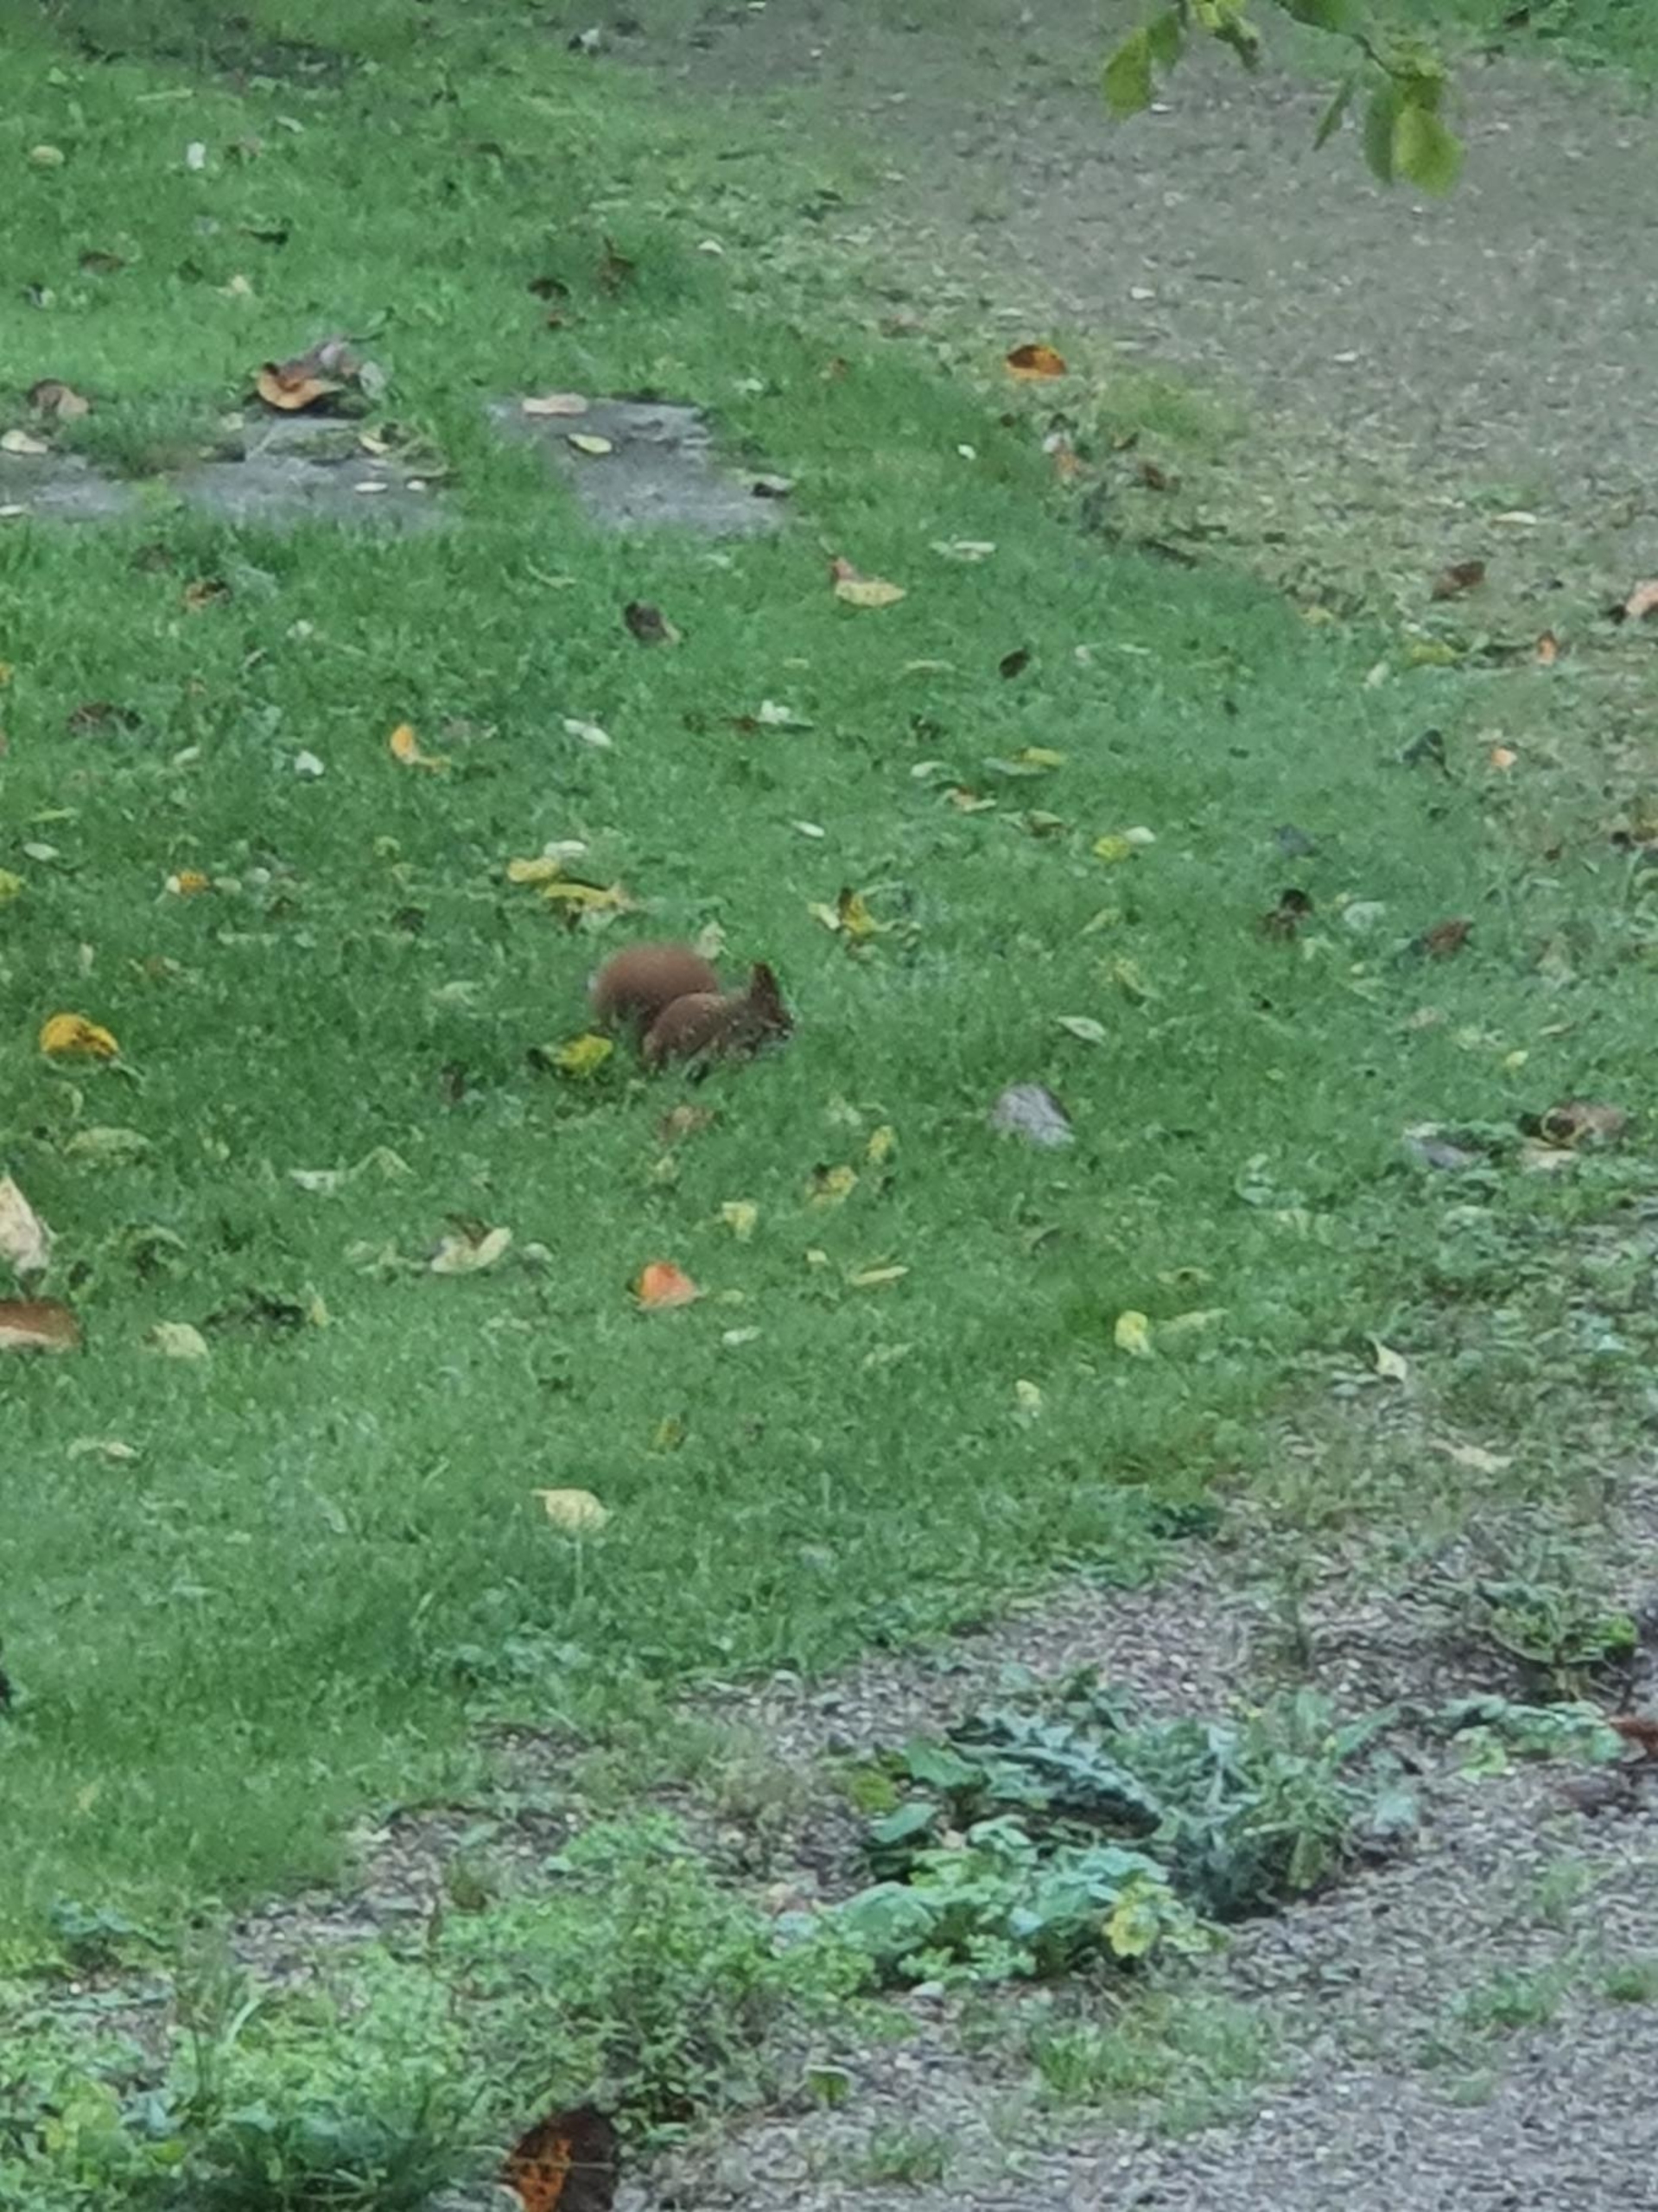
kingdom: Animalia
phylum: Chordata
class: Mammalia
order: Rodentia
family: Sciuridae
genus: Sciurus
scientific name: Sciurus vulgaris
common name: Egern
